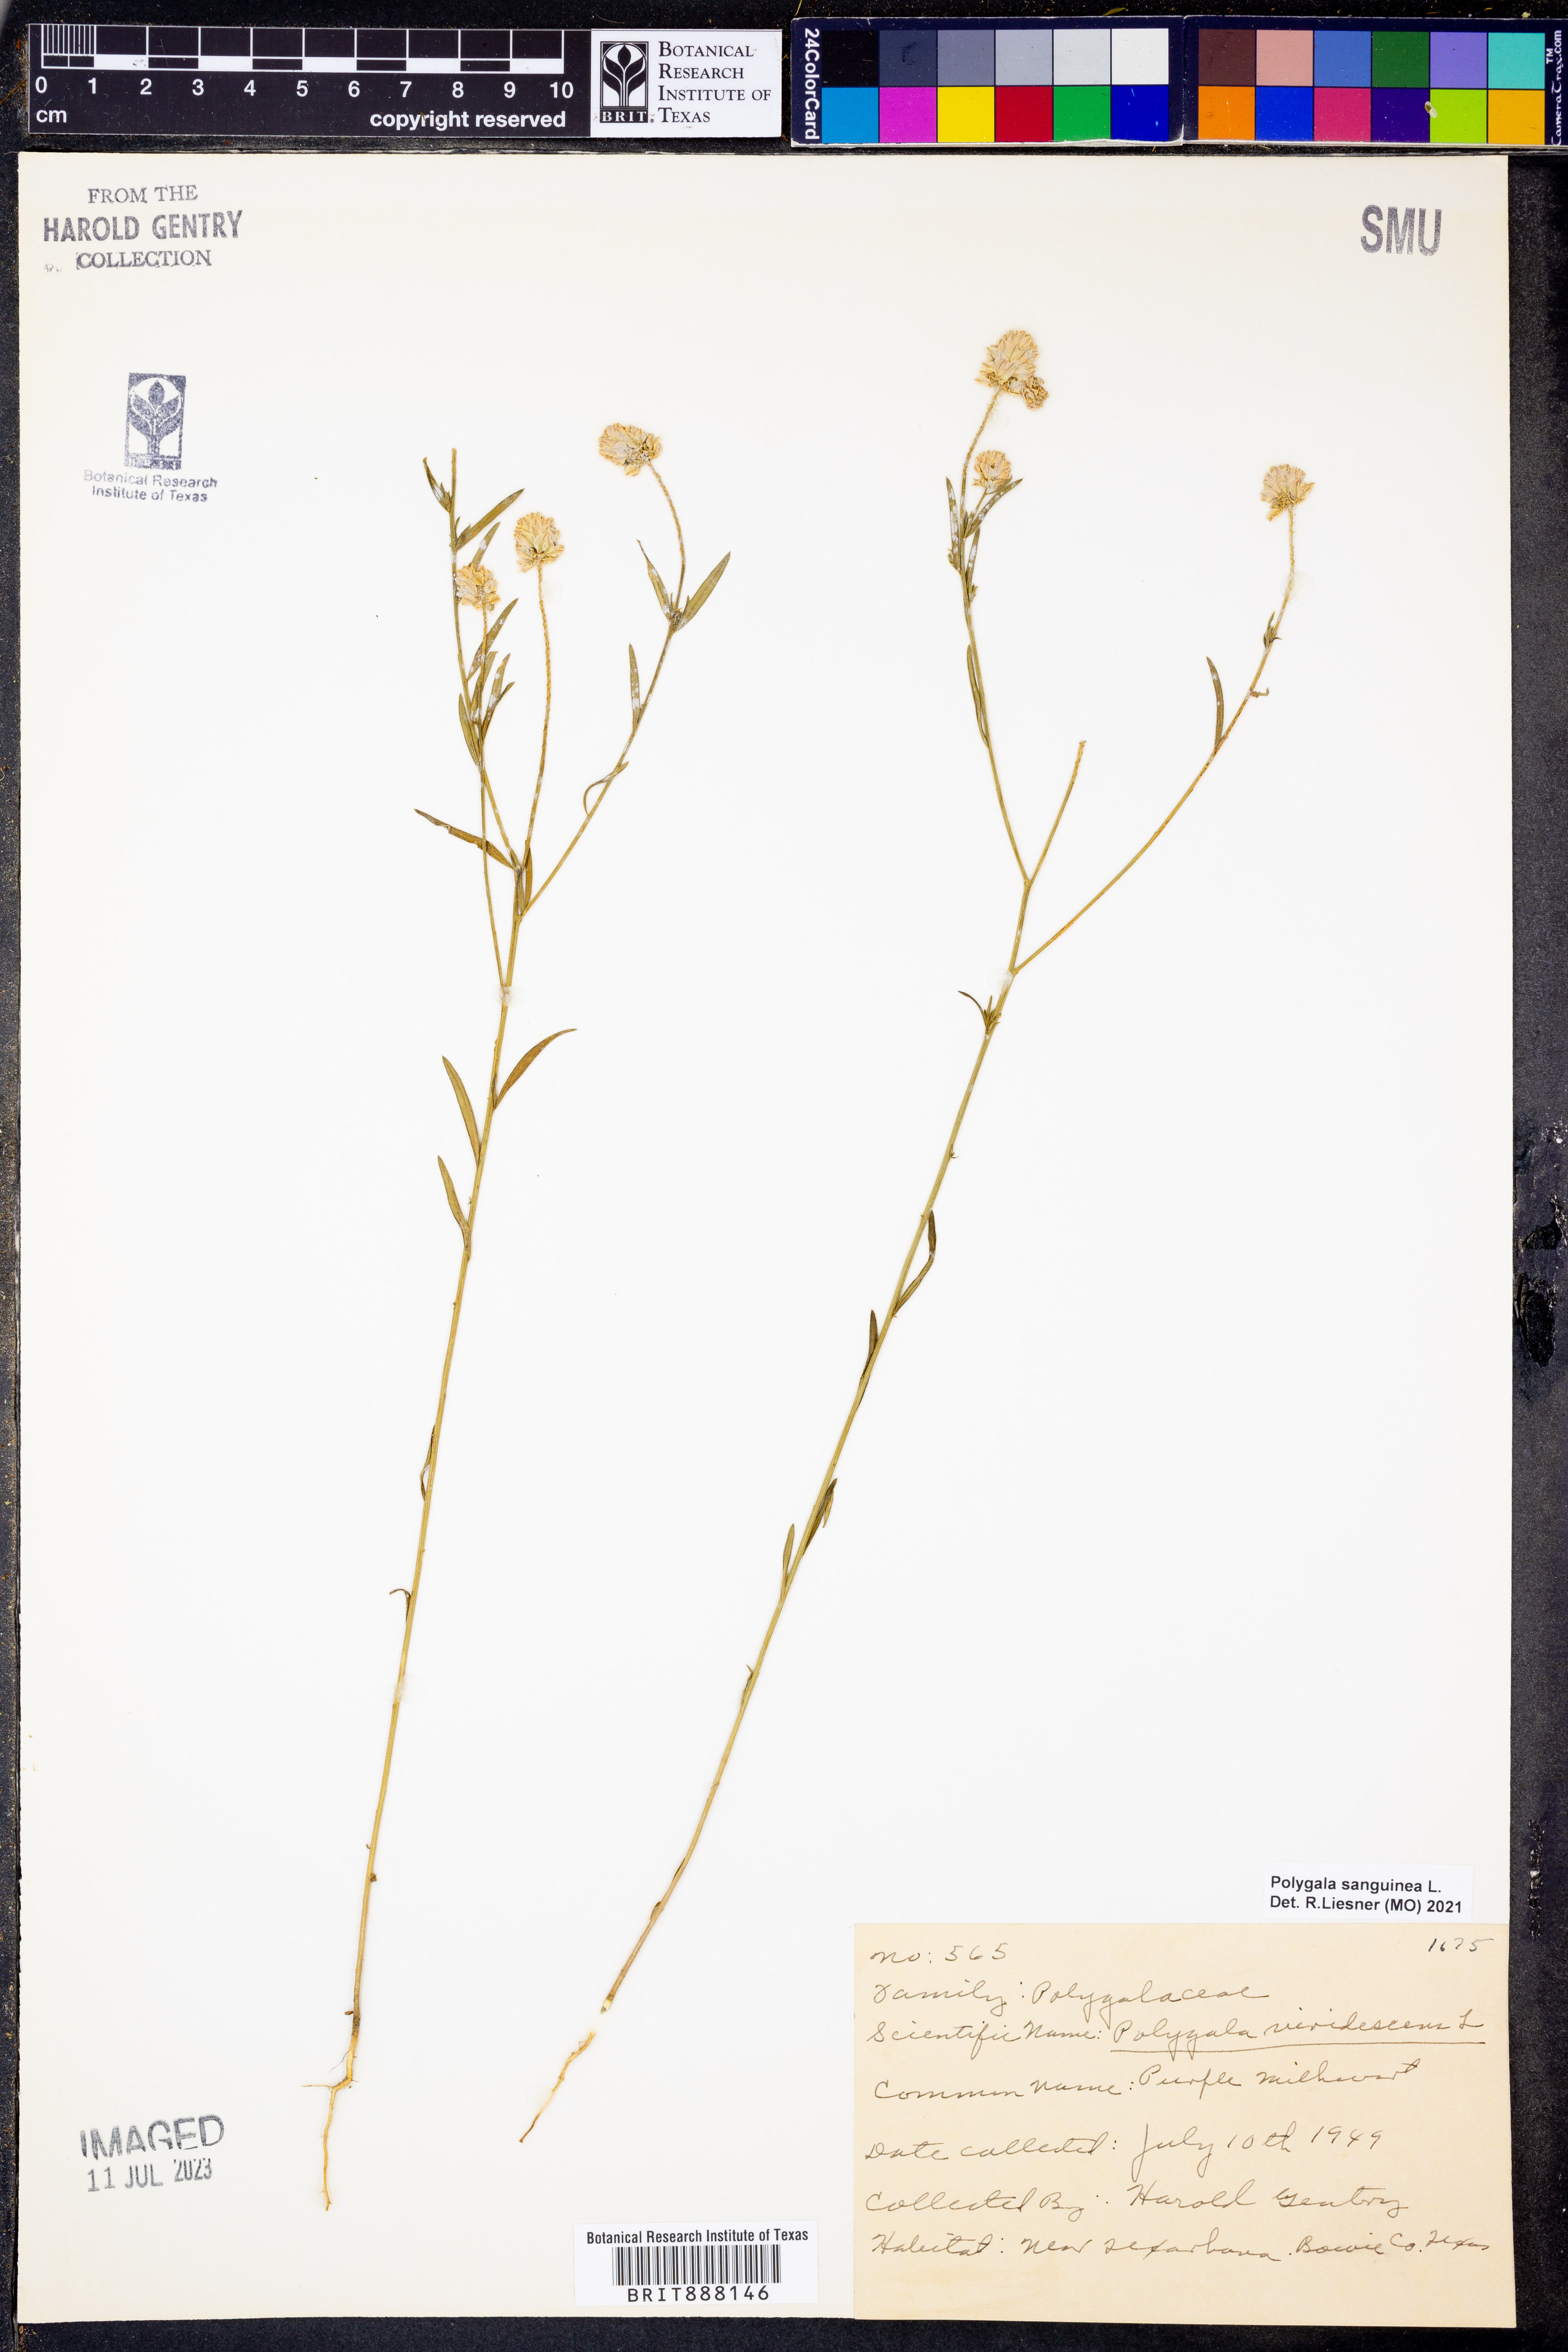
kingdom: Plantae
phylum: Tracheophyta
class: Magnoliopsida
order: Fabales
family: Polygalaceae
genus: Polygala
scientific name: Polygala sanguinea
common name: Blood milkwort
